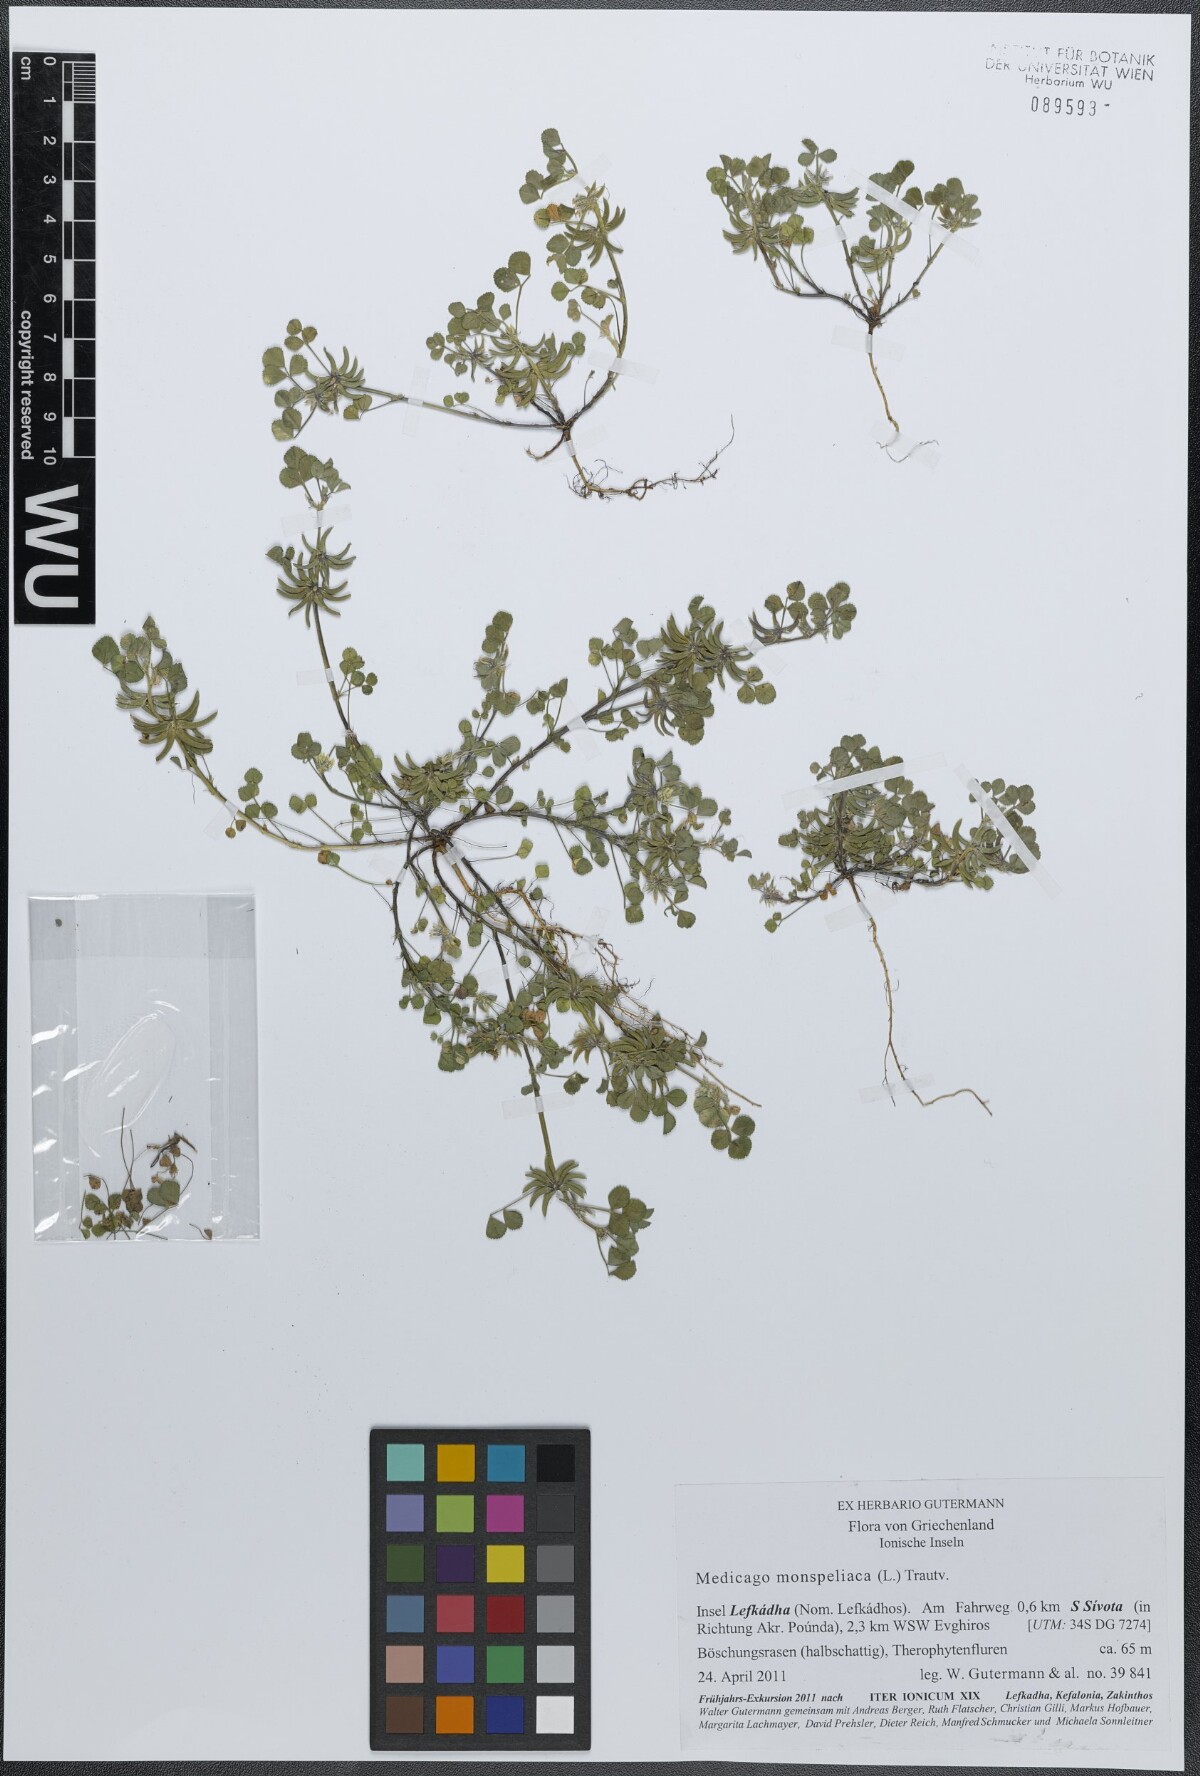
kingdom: Plantae
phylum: Tracheophyta
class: Magnoliopsida
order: Fabales
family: Fabaceae
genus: Medicago
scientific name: Medicago monspeliaca
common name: Hairy medick
